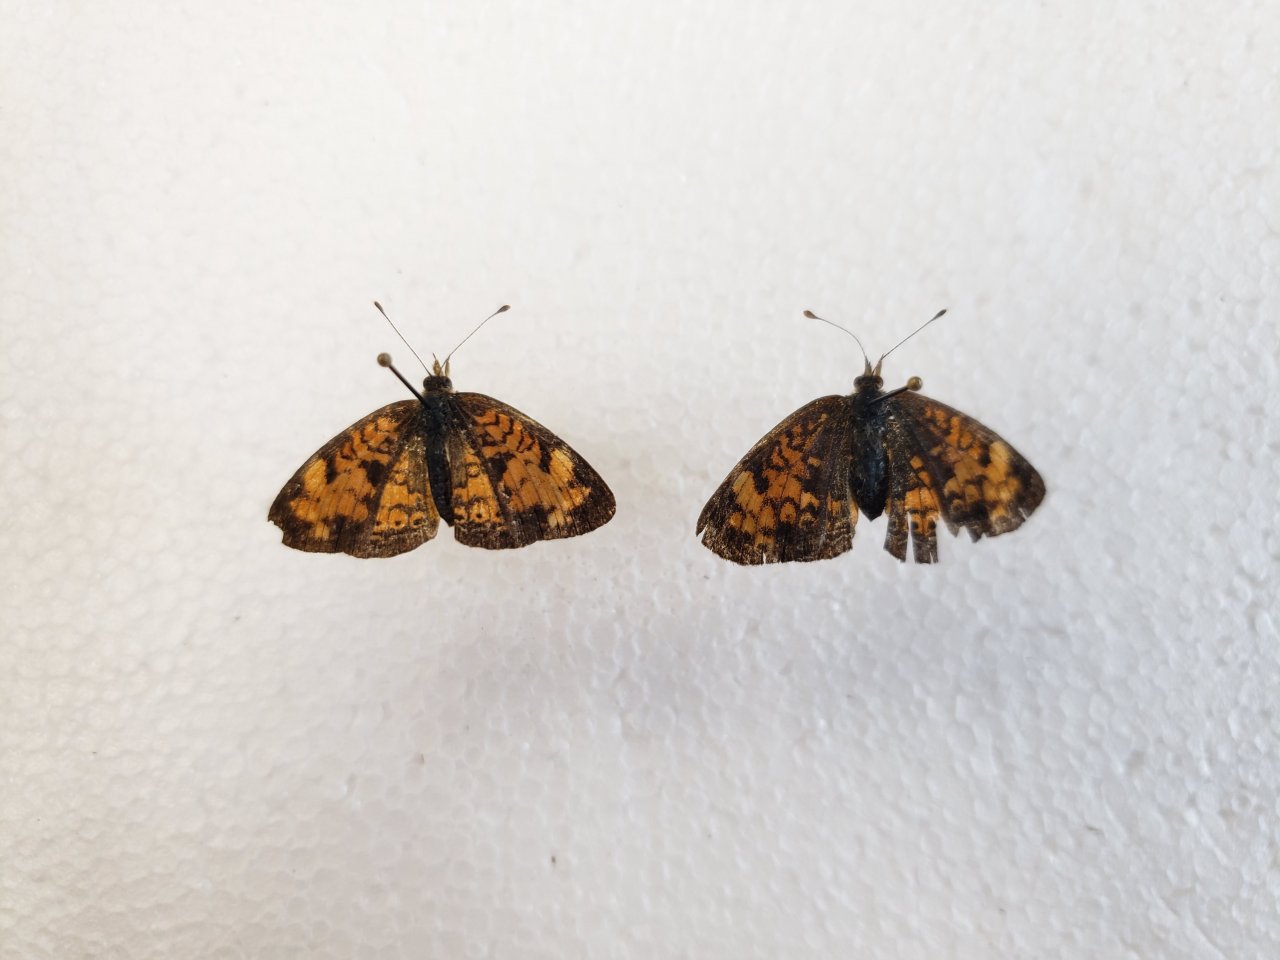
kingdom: Animalia
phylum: Arthropoda
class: Insecta
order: Lepidoptera
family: Nymphalidae
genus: Phyciodes
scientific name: Phyciodes tharos
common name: Northern Crescent
